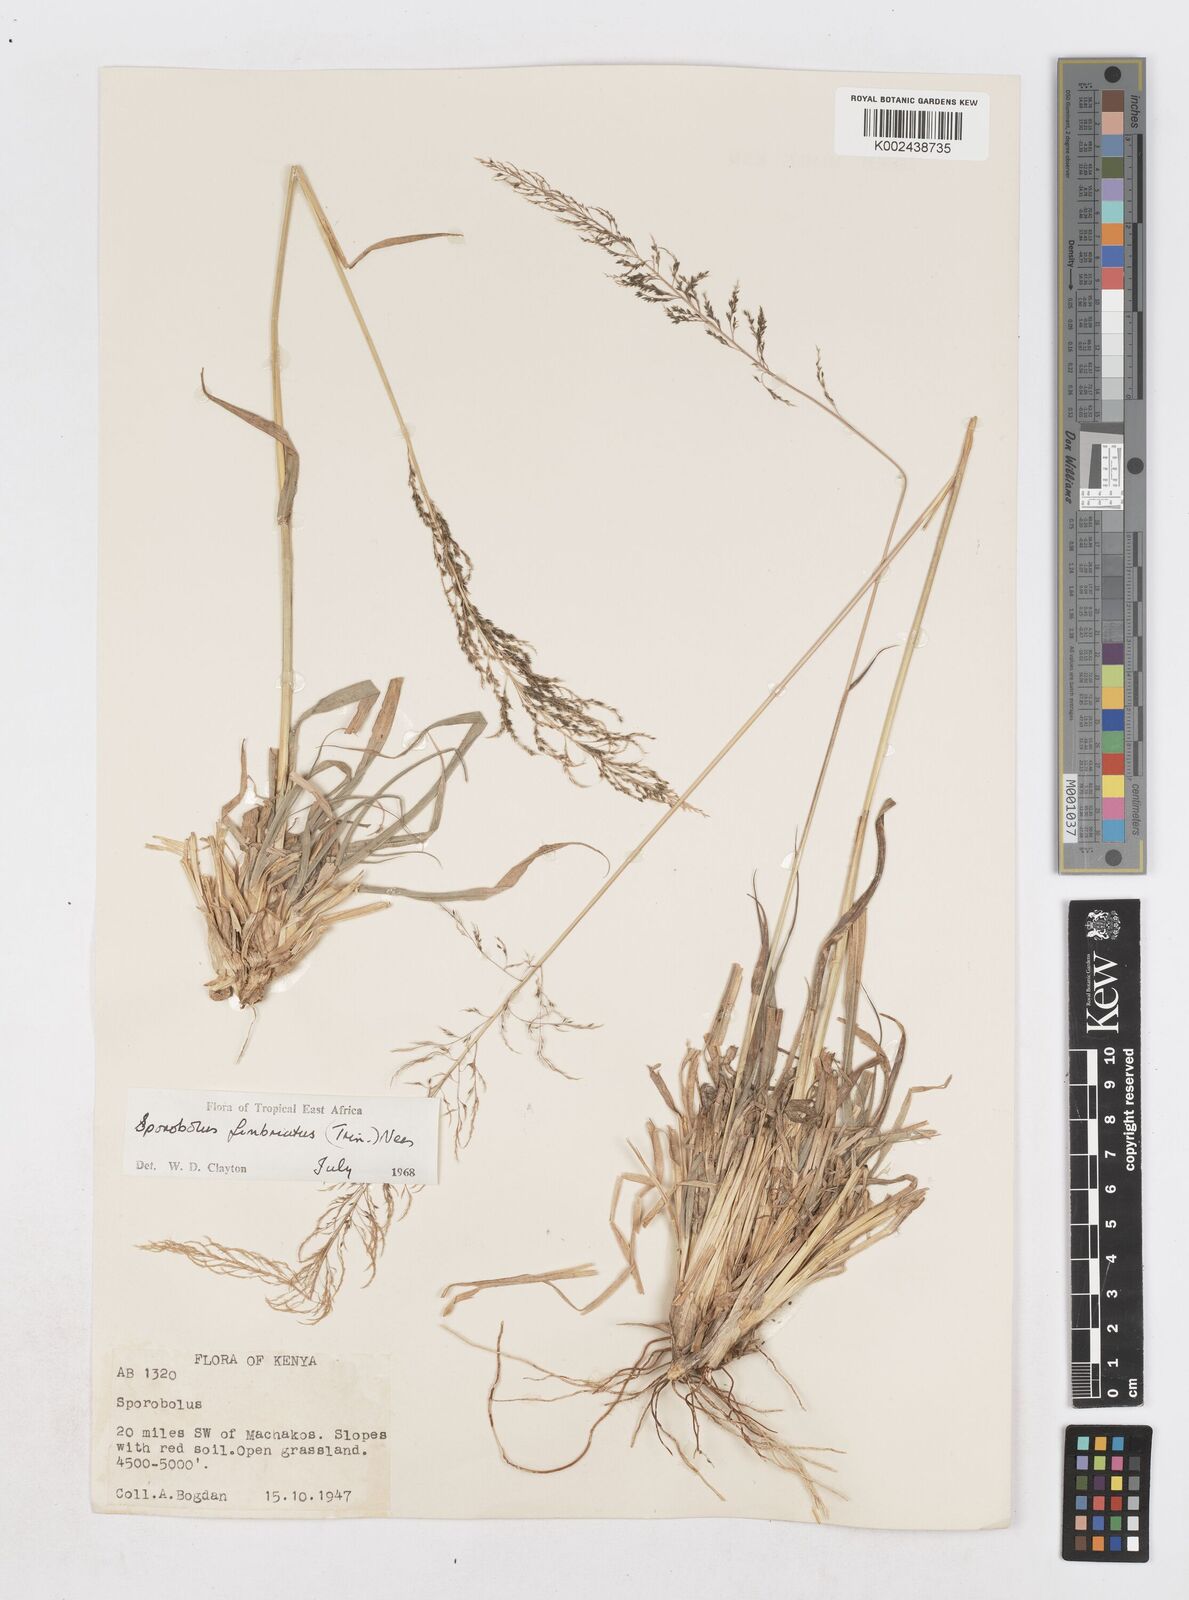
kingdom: Plantae
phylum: Tracheophyta
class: Liliopsida
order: Poales
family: Poaceae
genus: Sporobolus
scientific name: Sporobolus fimbriatus
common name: Fringed dropseed
